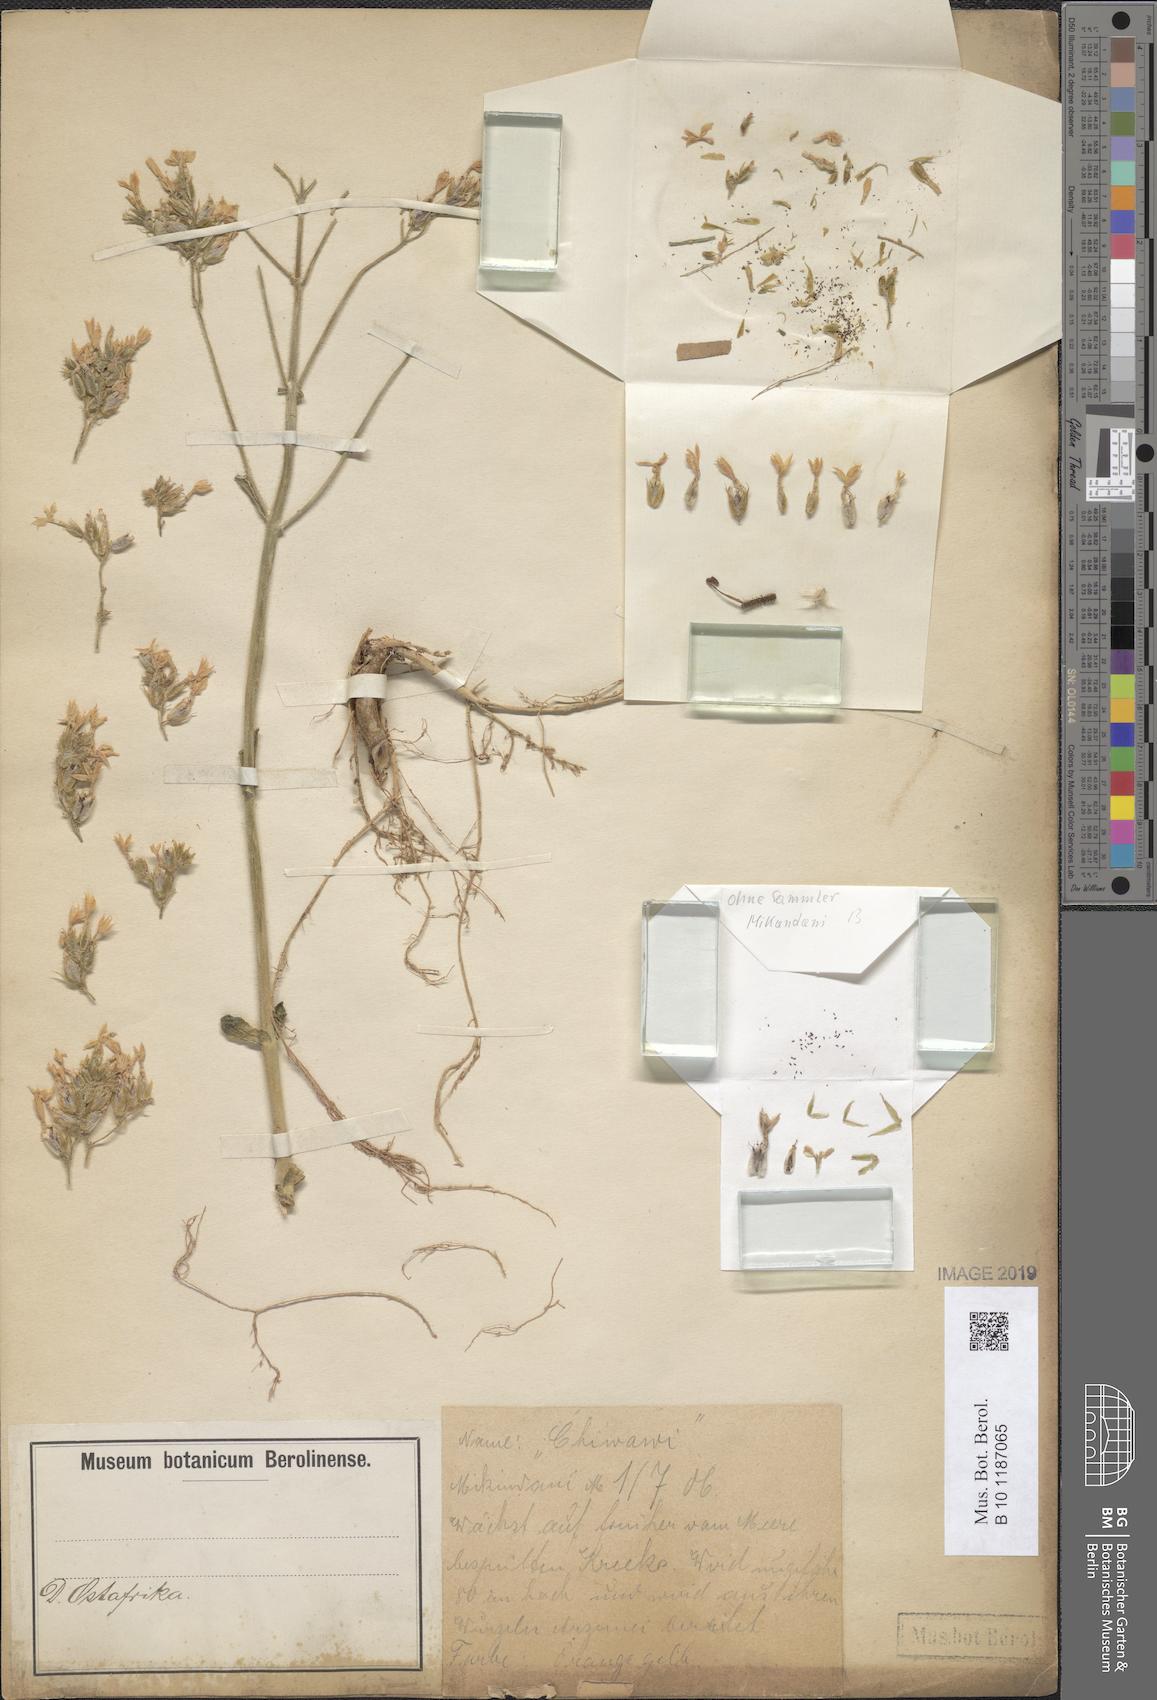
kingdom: Plantae
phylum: Tracheophyta
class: Magnoliopsida
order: Saxifragales
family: Crassulaceae
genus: Kalanchoe
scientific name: Kalanchoe
